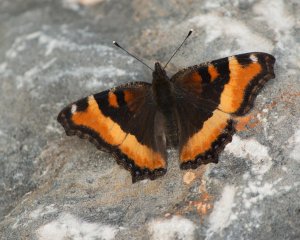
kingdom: Animalia
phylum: Arthropoda
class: Insecta
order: Lepidoptera
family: Nymphalidae
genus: Aglais
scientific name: Aglais milberti
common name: Milbert's Tortoiseshell
